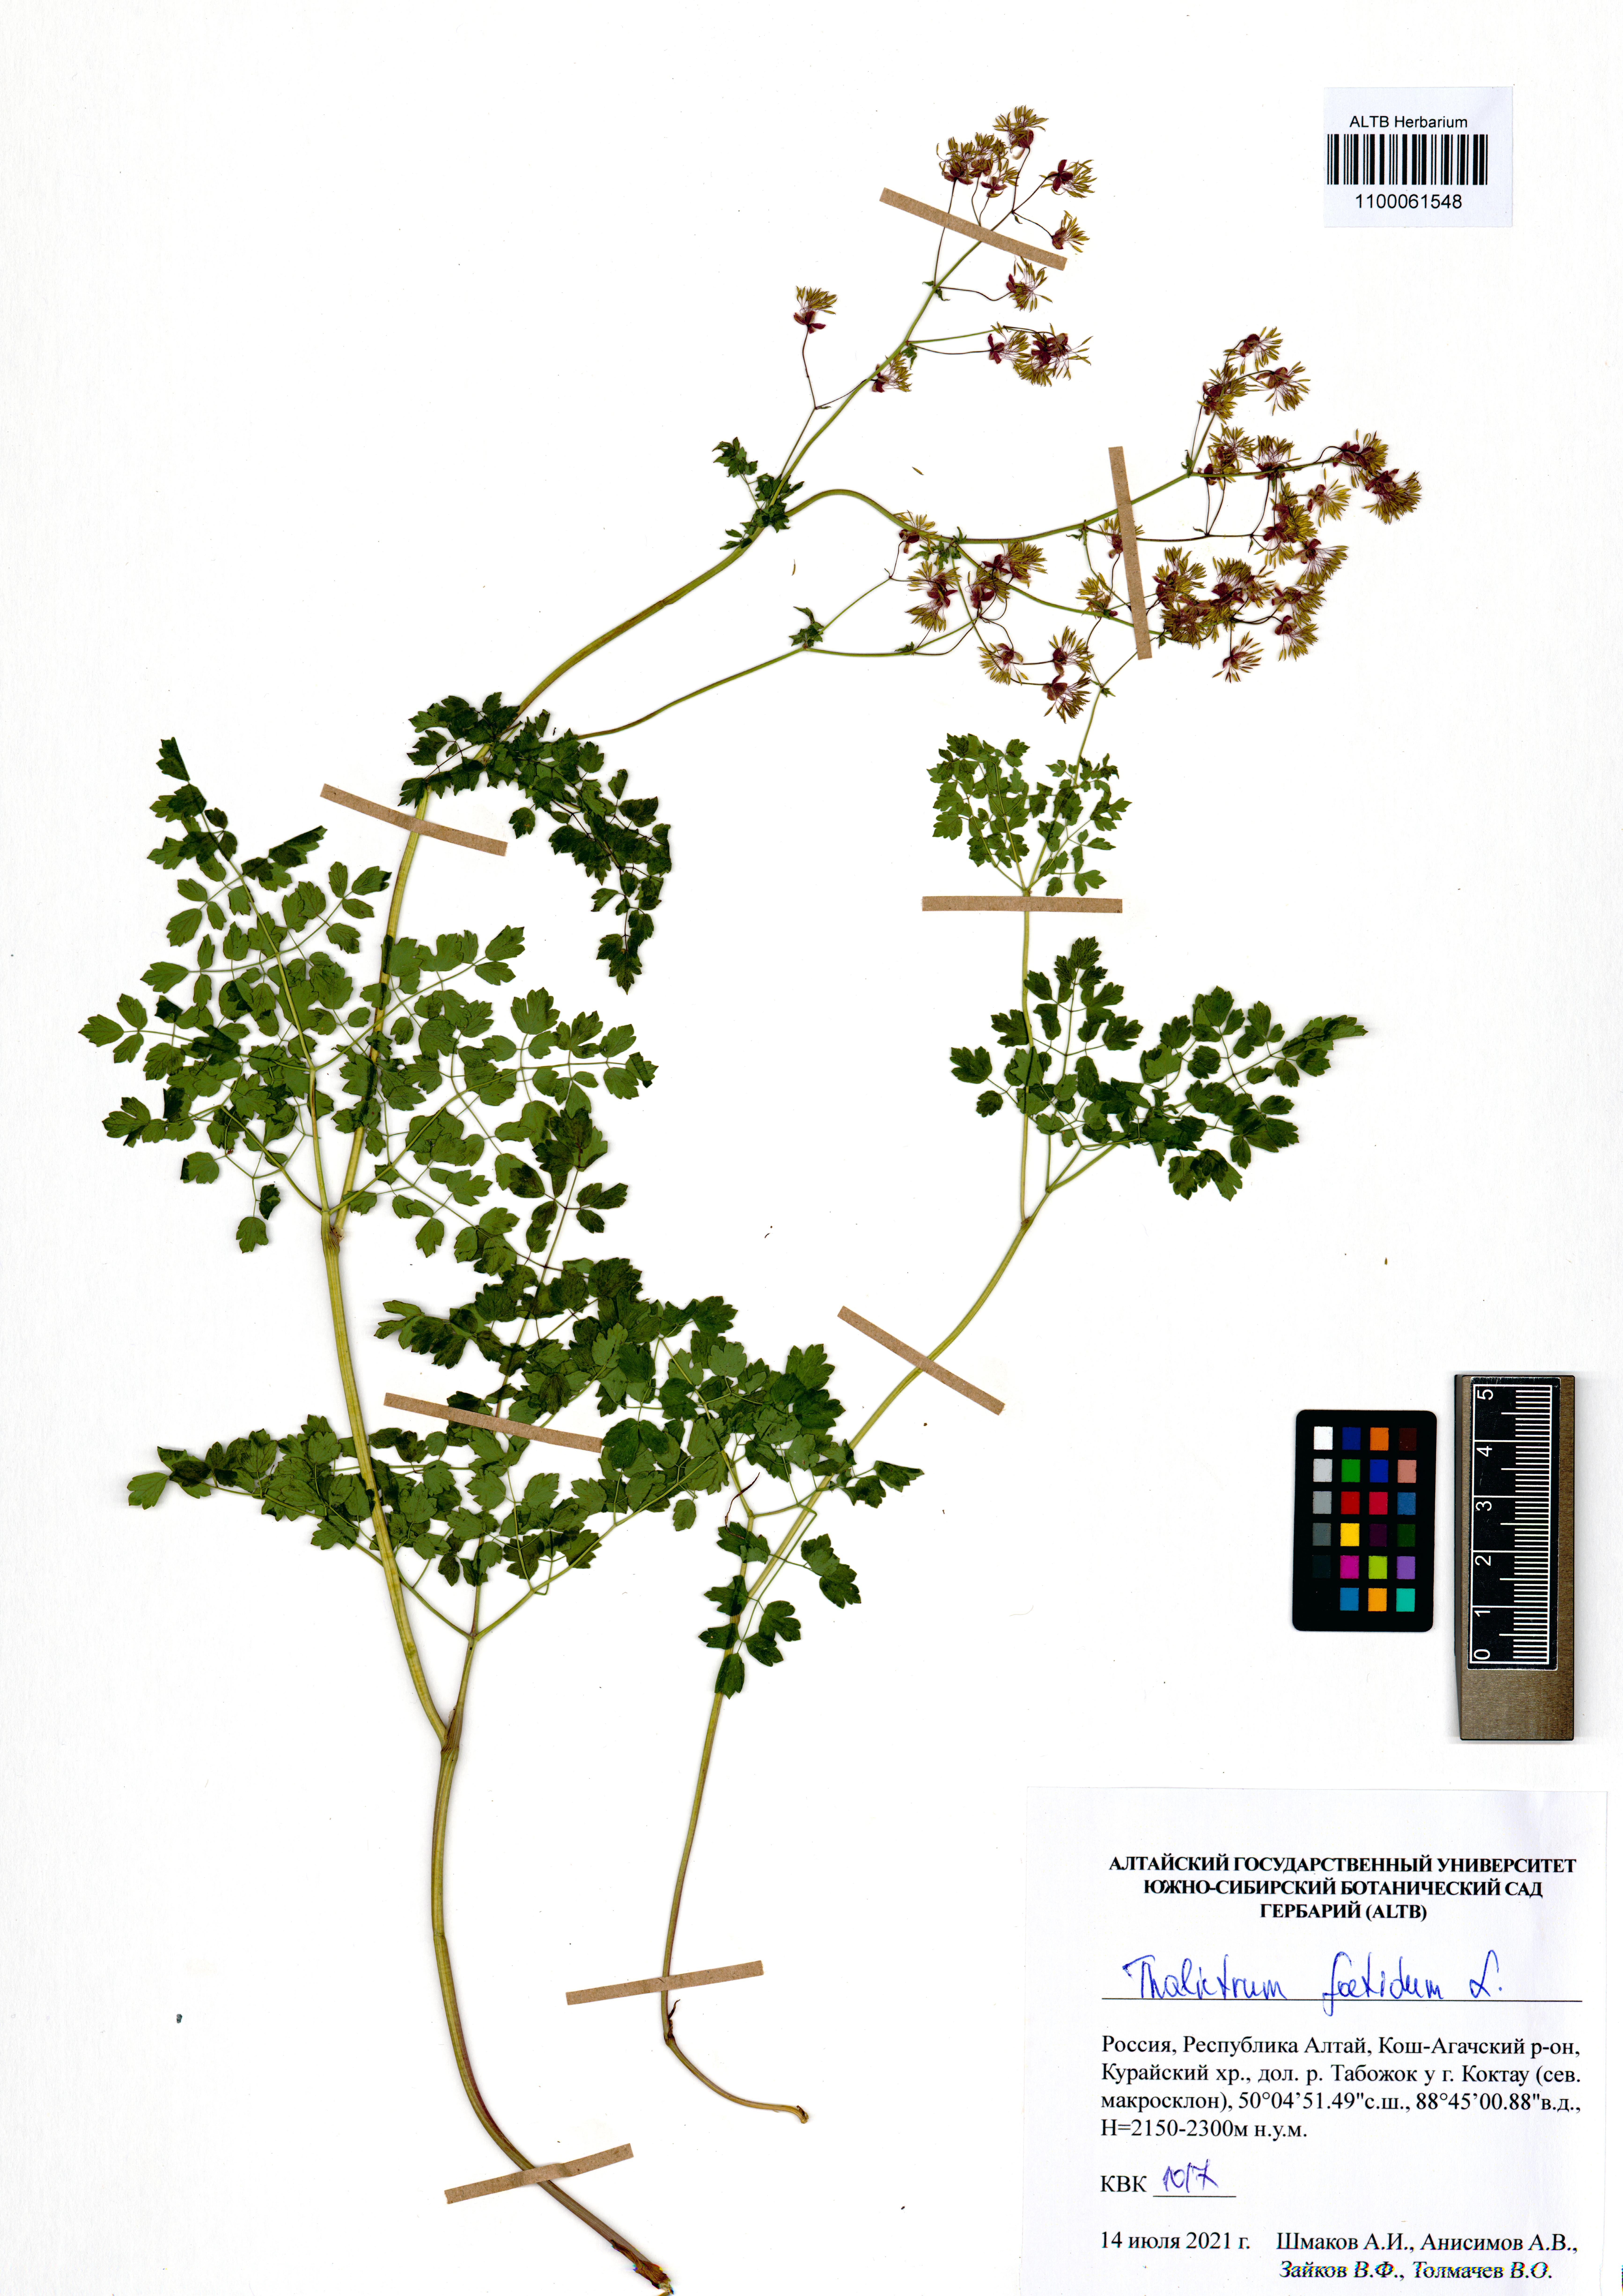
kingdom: Plantae
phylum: Tracheophyta
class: Magnoliopsida
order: Ranunculales
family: Ranunculaceae
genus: Thalictrum
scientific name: Thalictrum foetidum
